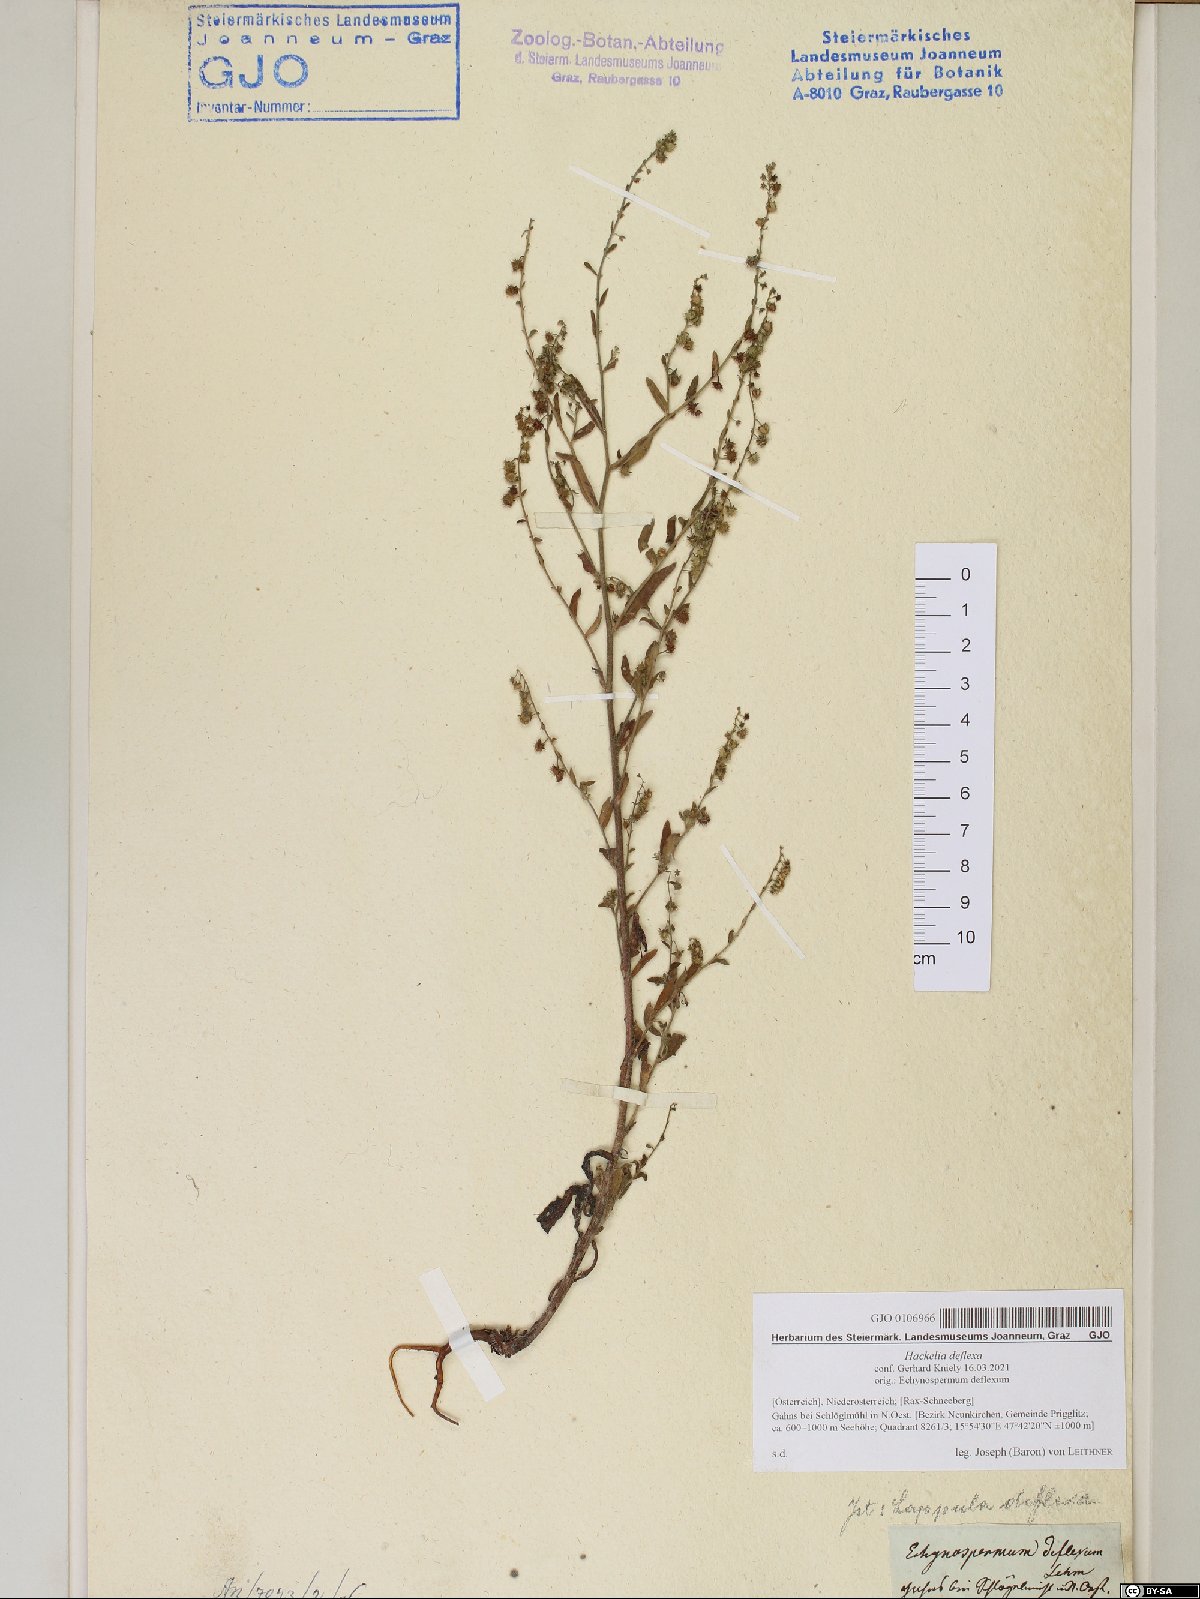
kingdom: Plantae
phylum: Tracheophyta
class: Magnoliopsida
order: Boraginales
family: Boraginaceae
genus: Hackelia
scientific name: Hackelia deflexa
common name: Nodding stickseed
